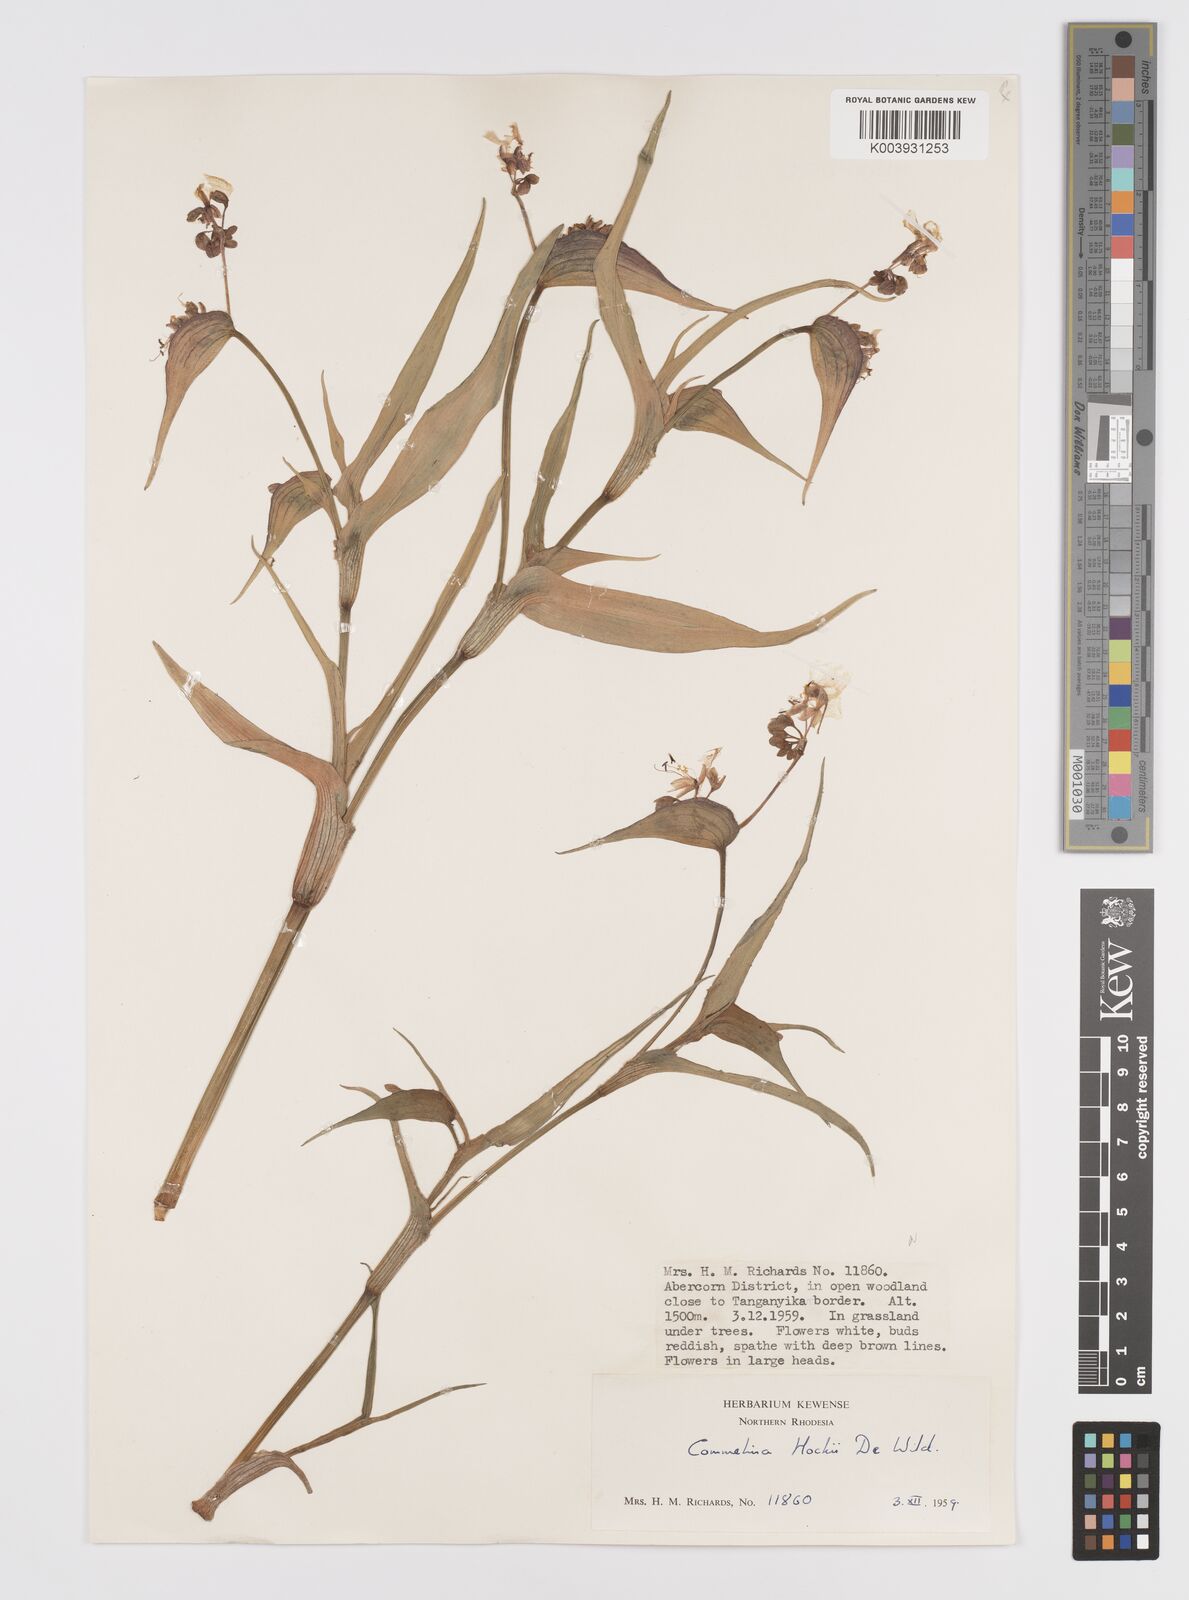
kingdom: Plantae
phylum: Tracheophyta
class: Liliopsida
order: Commelinales
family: Commelinaceae
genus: Commelina
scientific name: Commelina hockii
